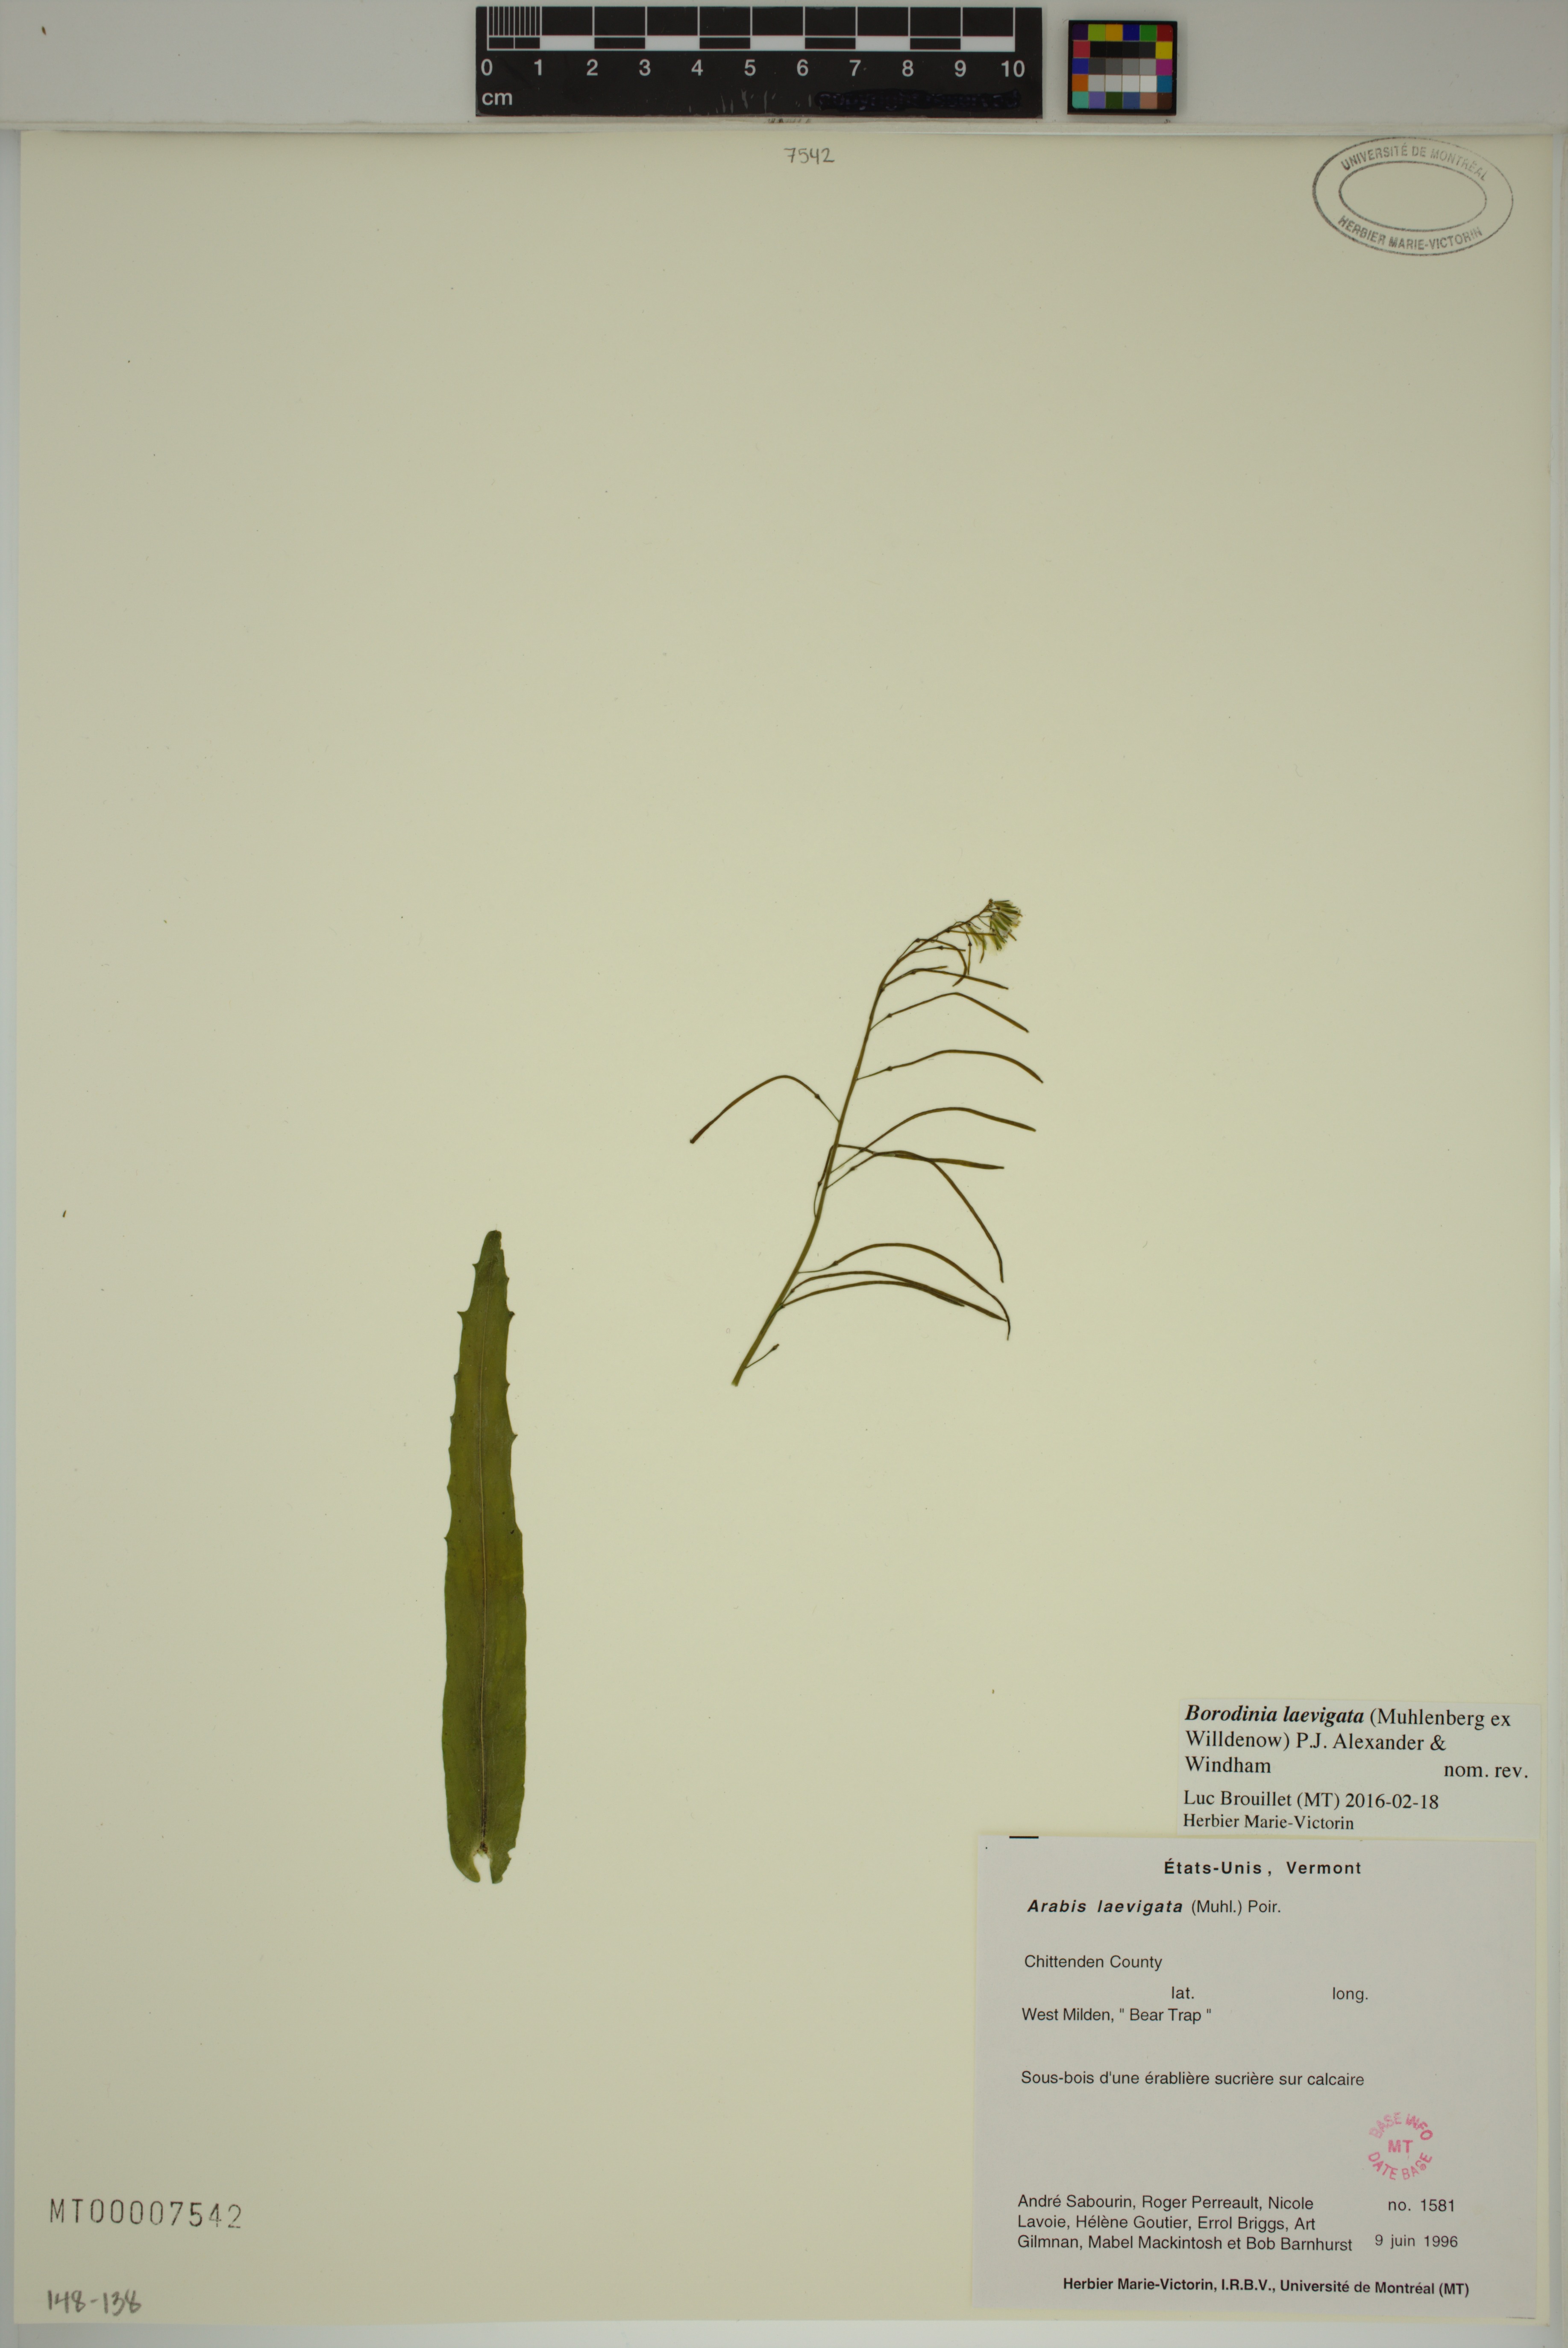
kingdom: Plantae
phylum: Tracheophyta
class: Magnoliopsida
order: Brassicales
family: Brassicaceae
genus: Borodinia
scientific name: Borodinia laevigata
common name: Smooth rockcress
